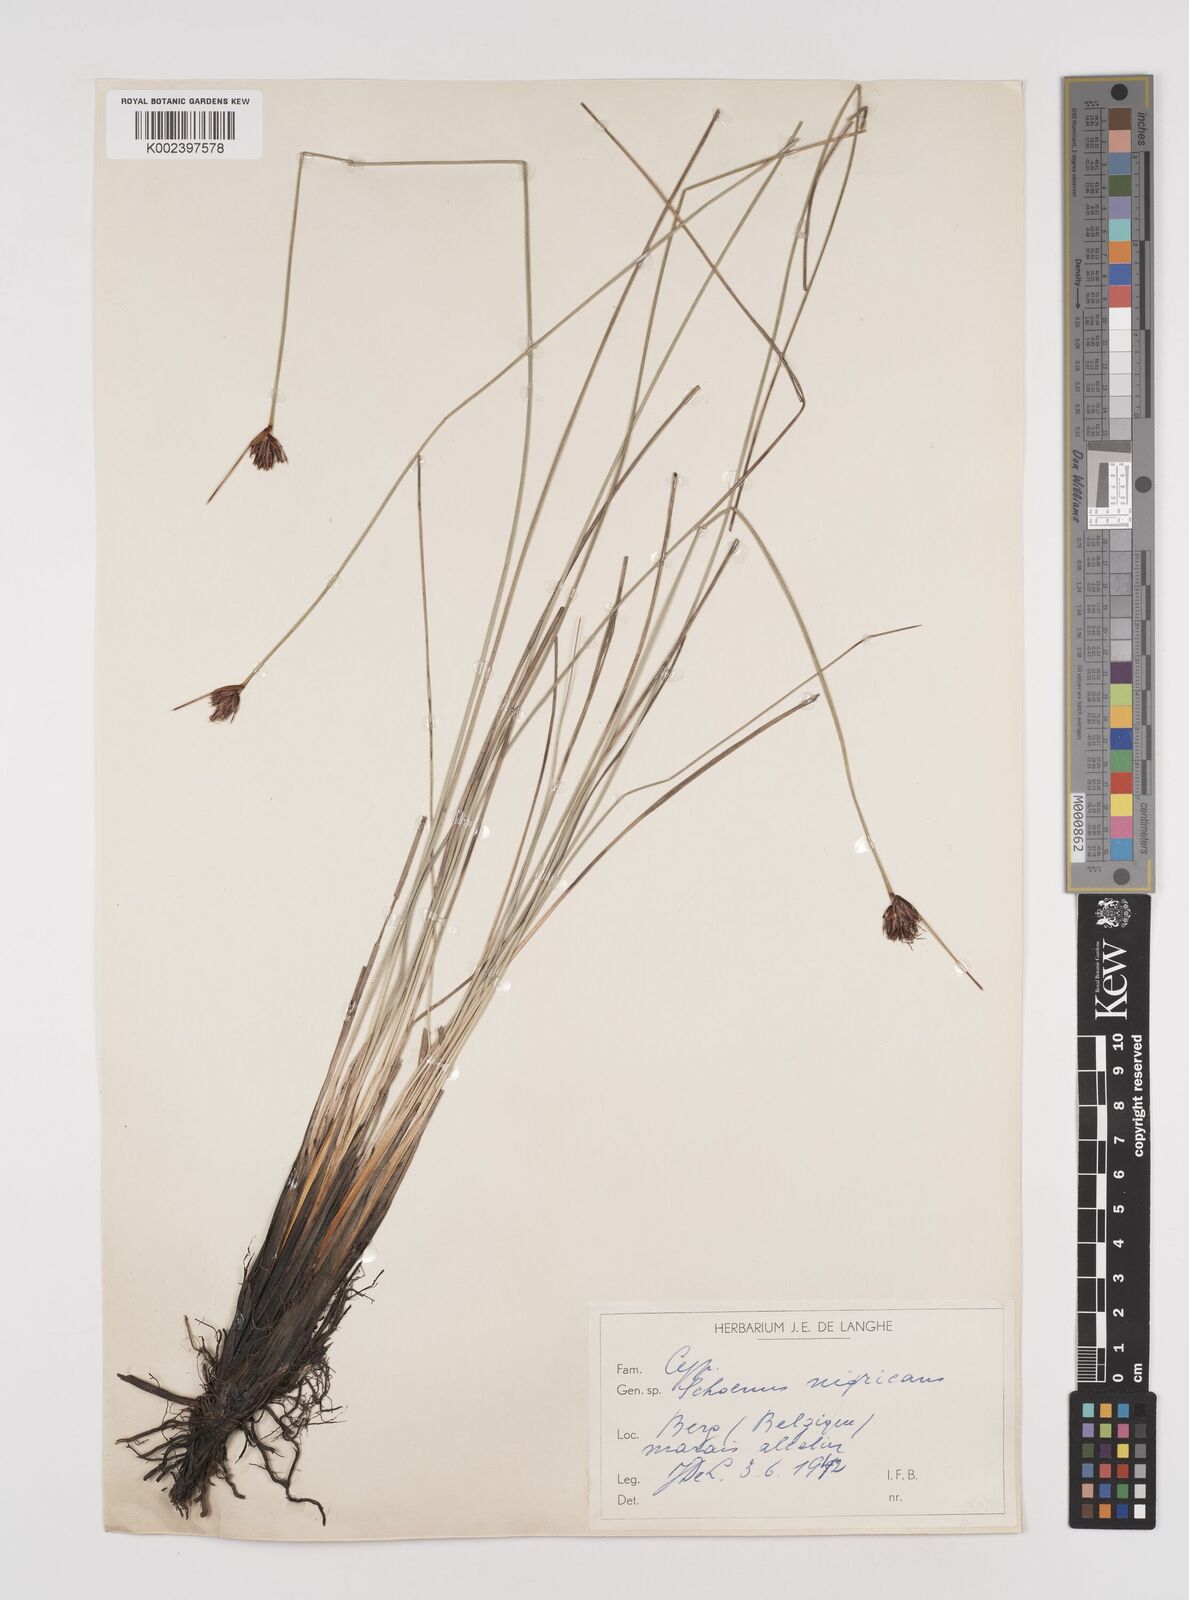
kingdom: Plantae
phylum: Tracheophyta
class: Liliopsida
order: Poales
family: Cyperaceae
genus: Schoenus
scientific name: Schoenus nigricans
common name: Black bog-rush
